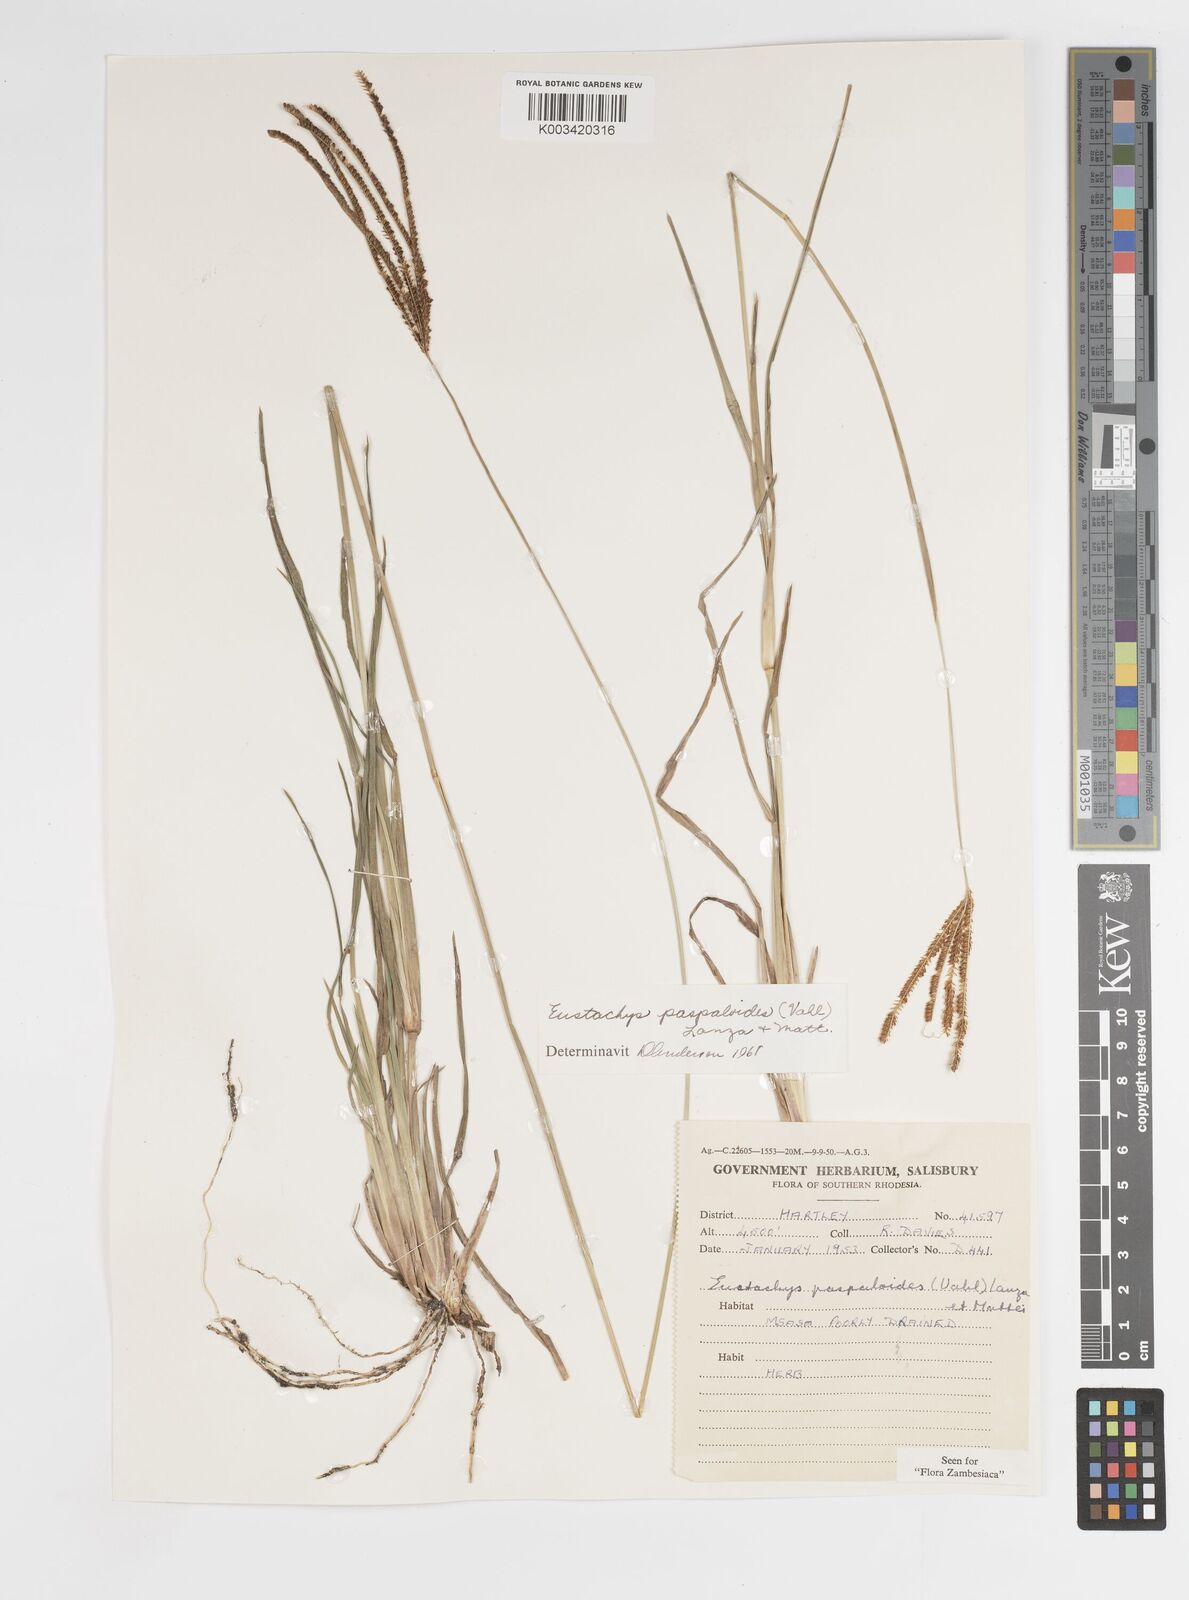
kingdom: Plantae
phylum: Tracheophyta
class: Liliopsida
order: Poales
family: Poaceae
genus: Eustachys
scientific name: Eustachys paspaloides
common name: Caribbean fingergrass
